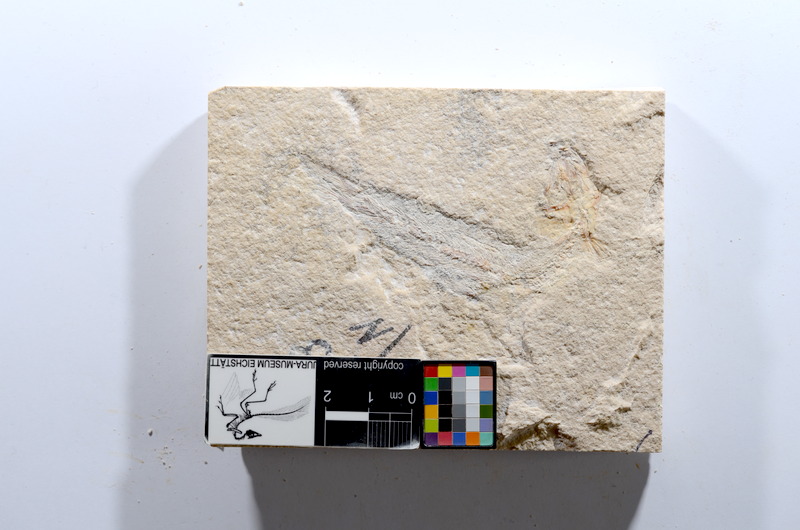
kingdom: Animalia
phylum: Chordata
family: Ascalaboidae
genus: Tharsis
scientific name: Tharsis dubius
